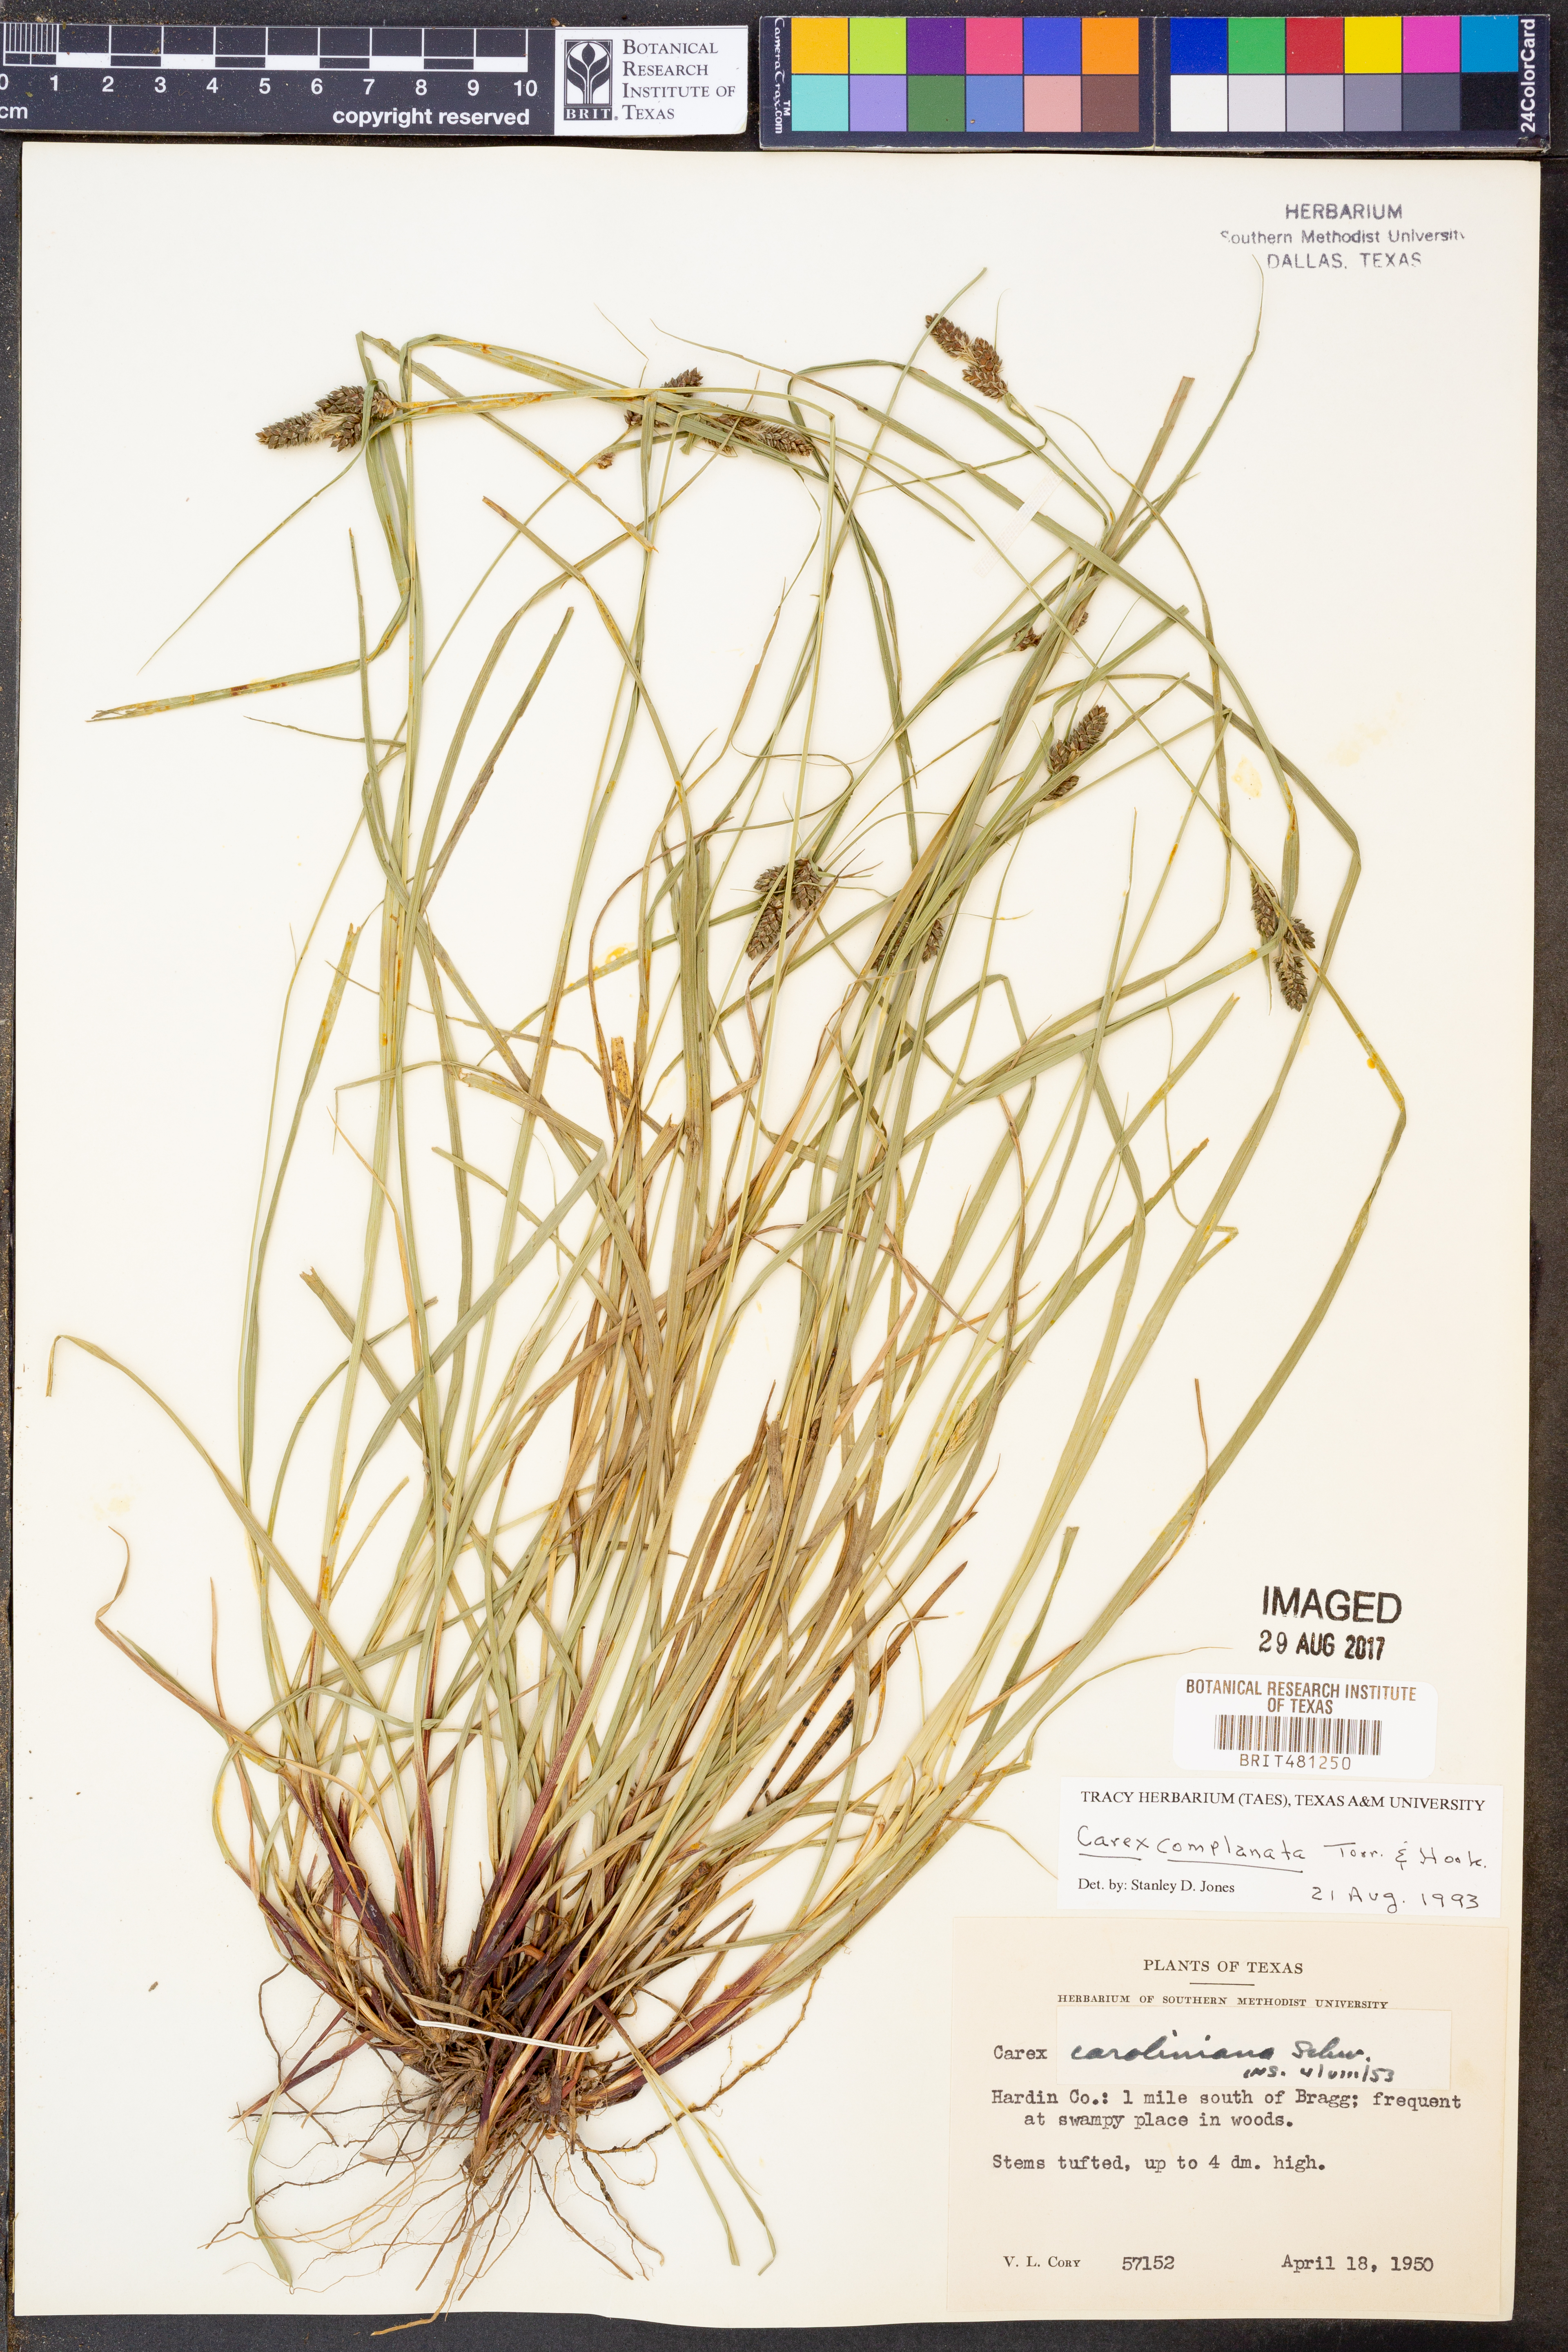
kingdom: Plantae
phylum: Tracheophyta
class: Liliopsida
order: Poales
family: Cyperaceae
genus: Carex
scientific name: Carex complanata
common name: Hirsute sedge
